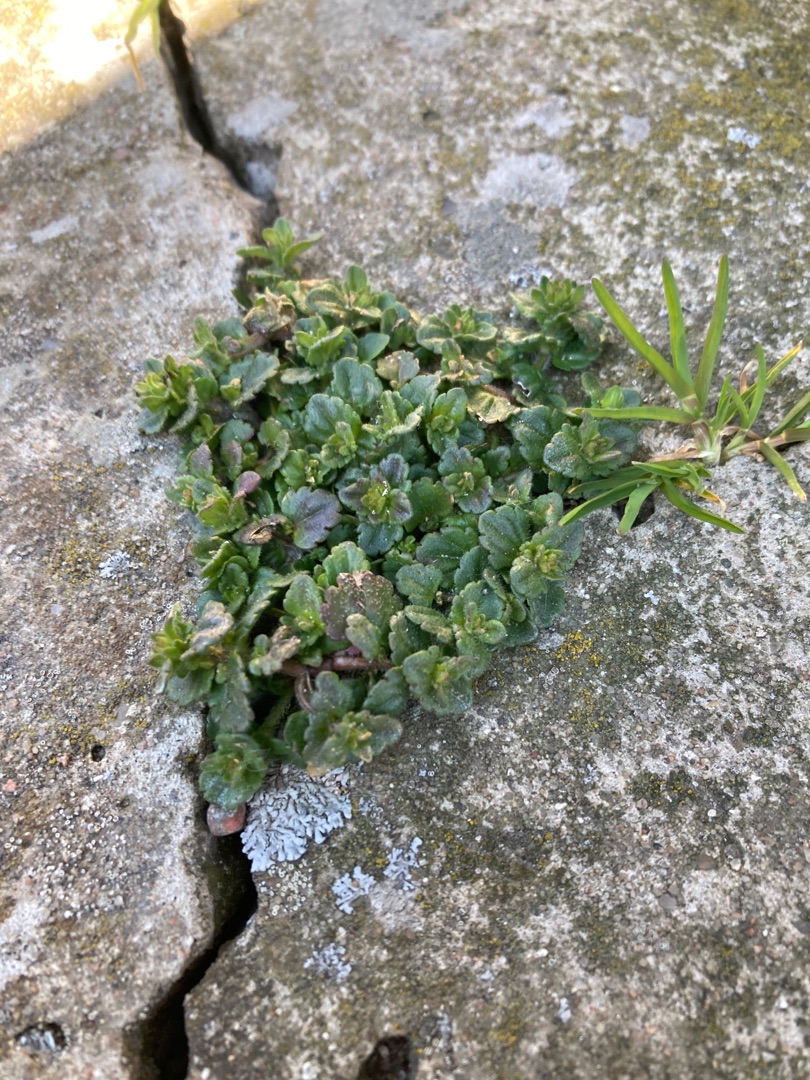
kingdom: Plantae
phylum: Tracheophyta
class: Magnoliopsida
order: Lamiales
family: Plantaginaceae
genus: Veronica
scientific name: Veronica
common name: Ærenprisslægten
